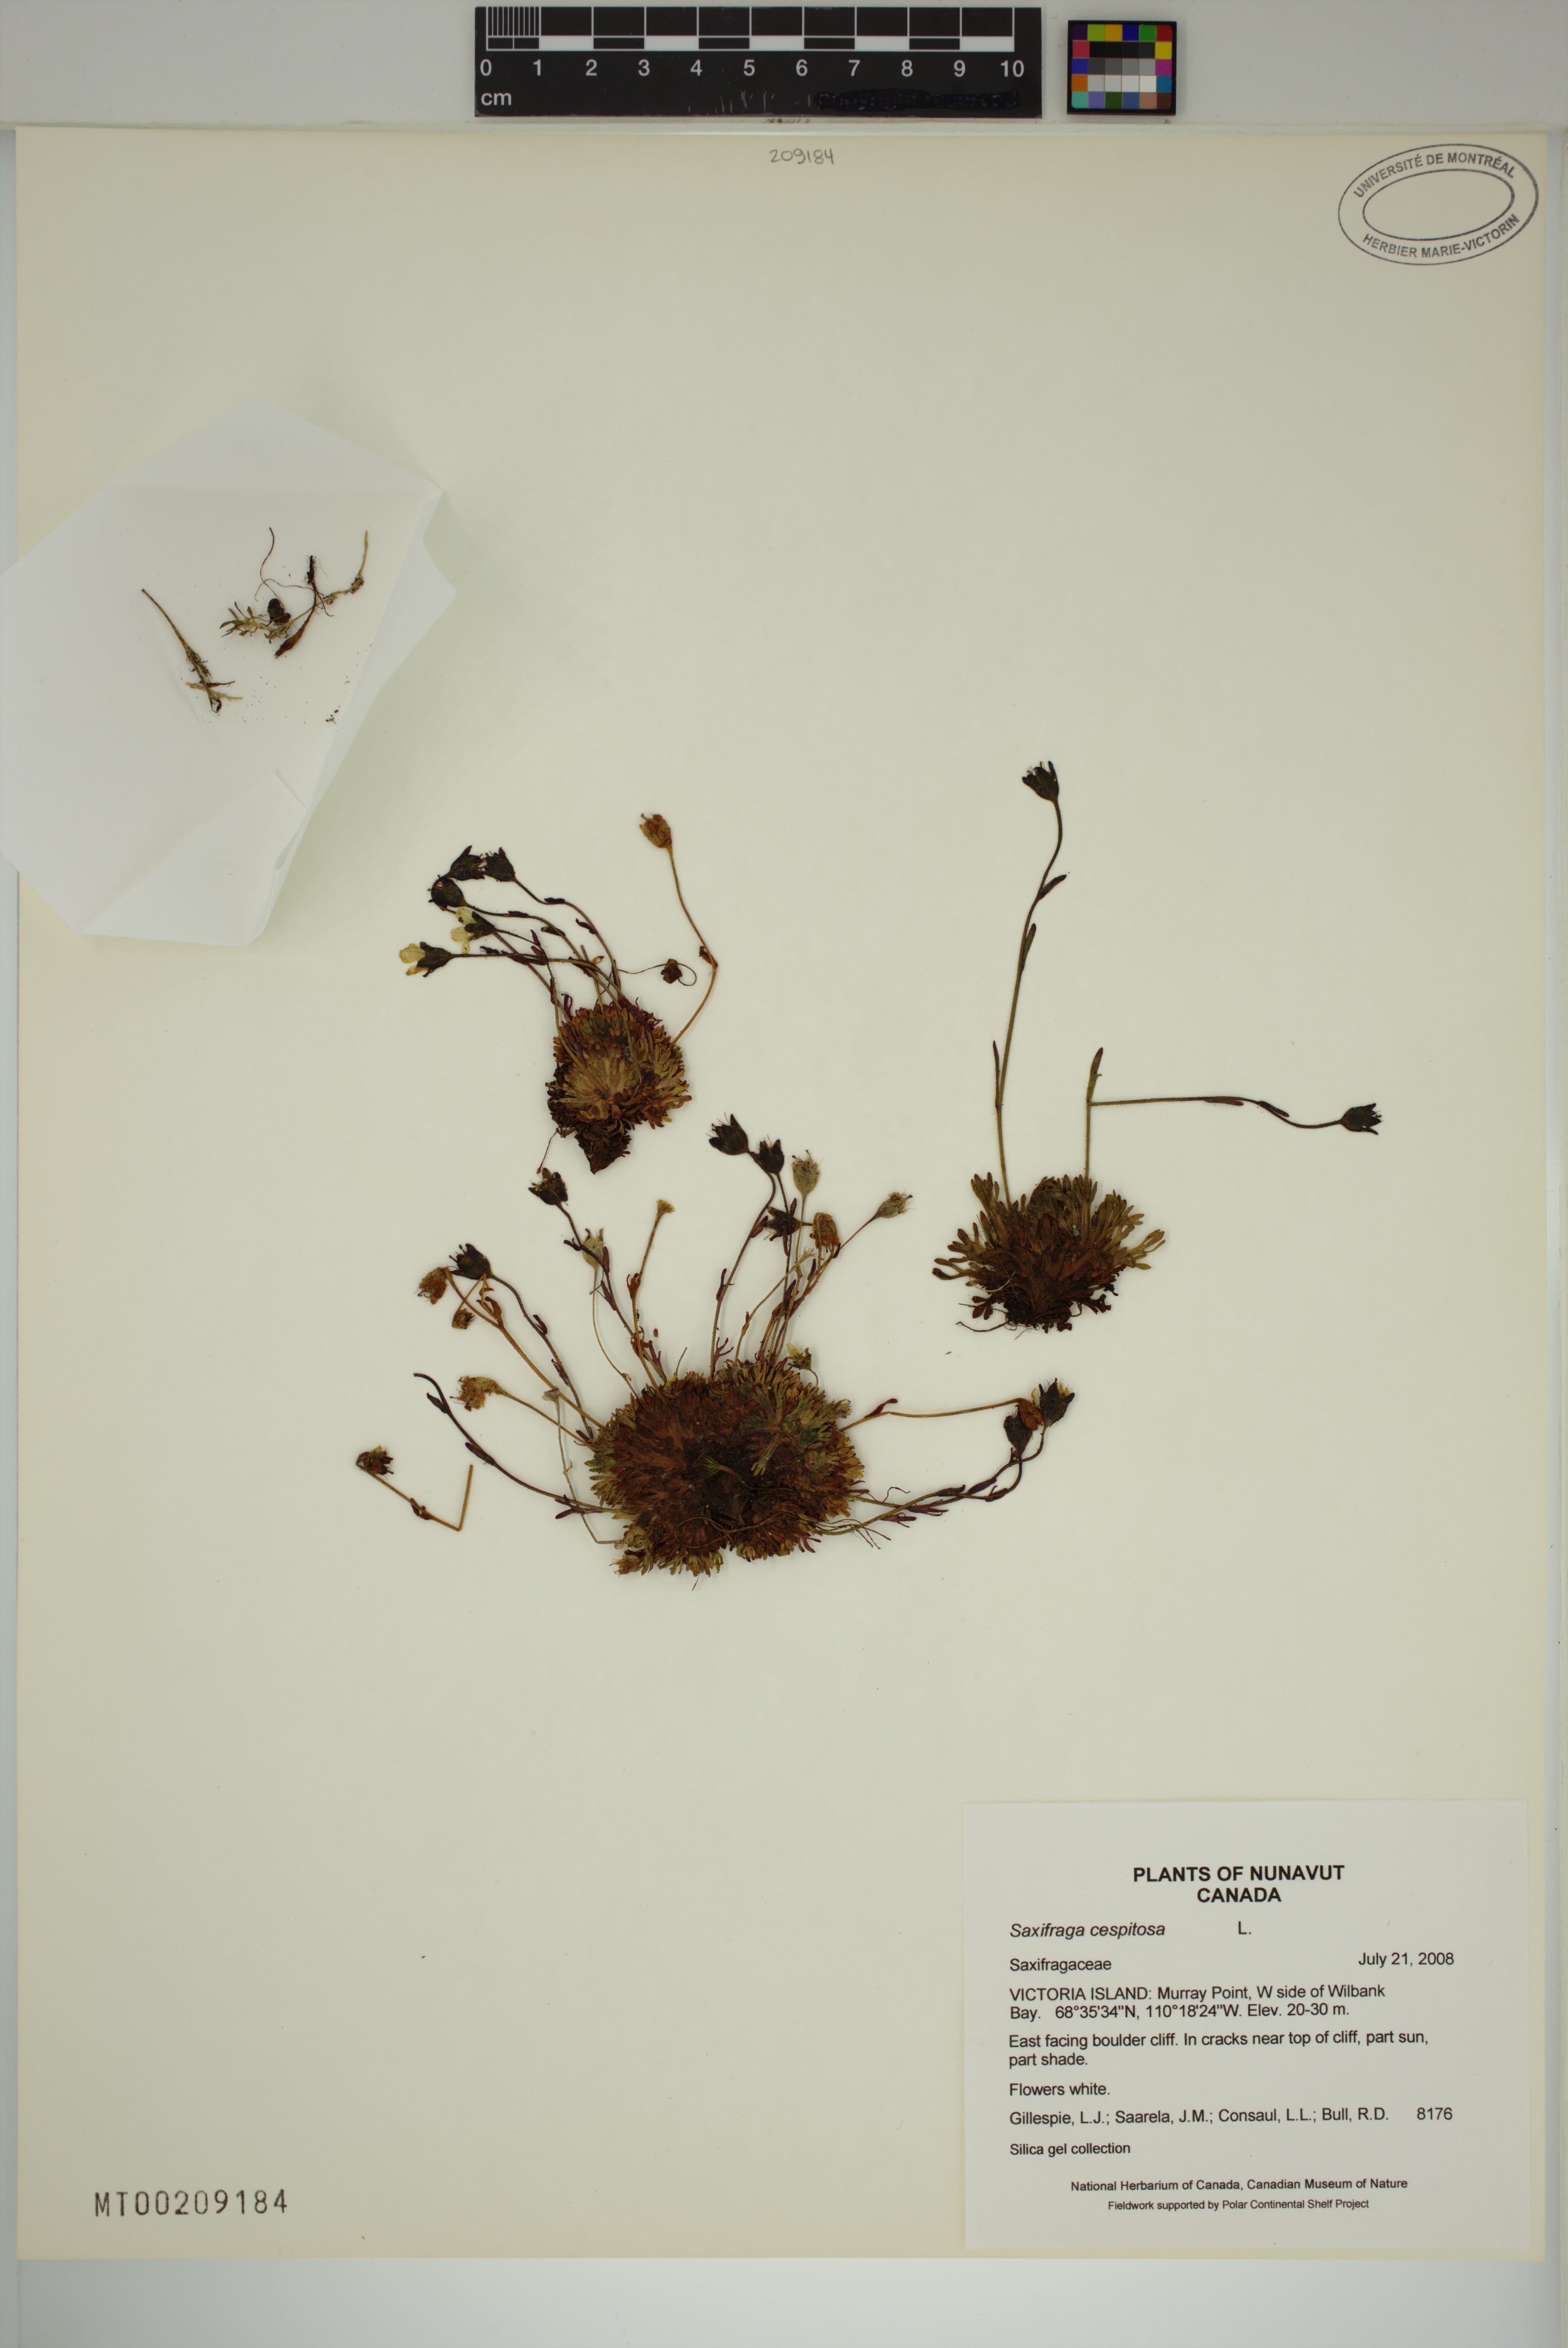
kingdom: Plantae
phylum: Tracheophyta
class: Magnoliopsida
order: Saxifragales
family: Saxifragaceae
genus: Saxifraga
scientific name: Saxifraga cespitosa
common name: Tufted saxifrage
